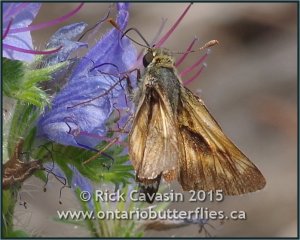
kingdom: Animalia
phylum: Arthropoda
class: Insecta
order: Lepidoptera
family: Hesperiidae
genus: Polites
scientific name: Polites
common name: Long Dash Skipper
